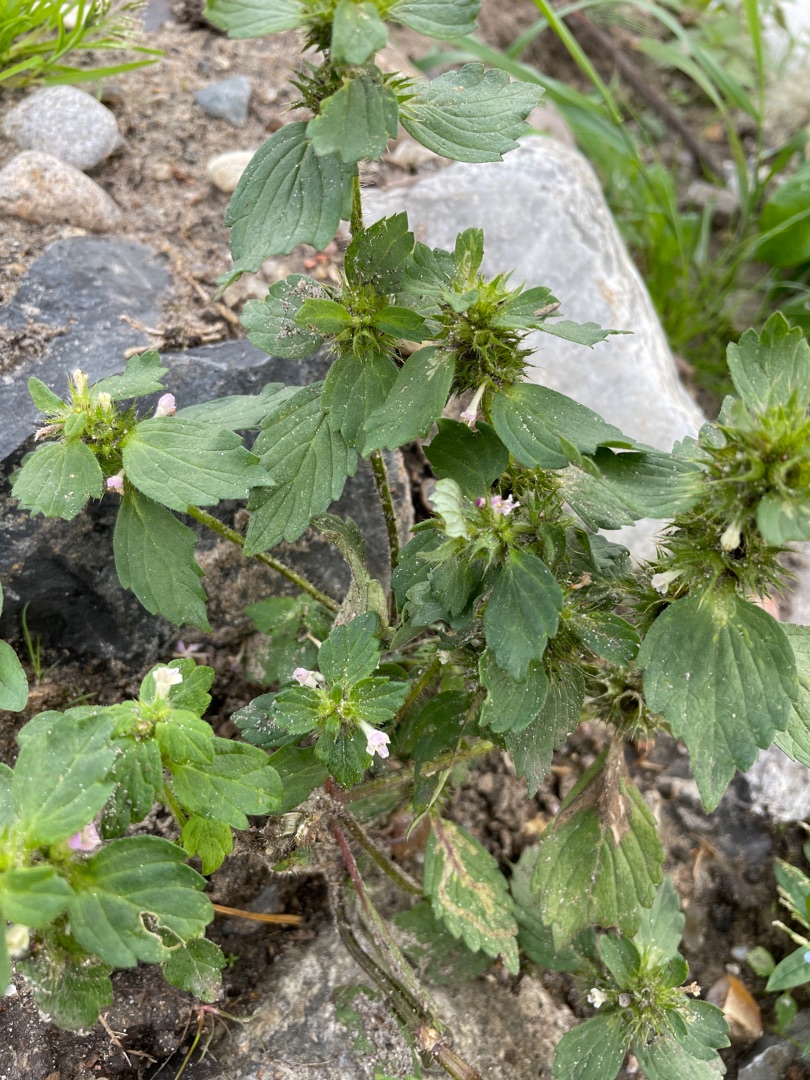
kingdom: Plantae
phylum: Tracheophyta
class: Magnoliopsida
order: Lamiales
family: Lamiaceae
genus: Galeopsis
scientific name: Galeopsis bifida
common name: Skov-hanekro
